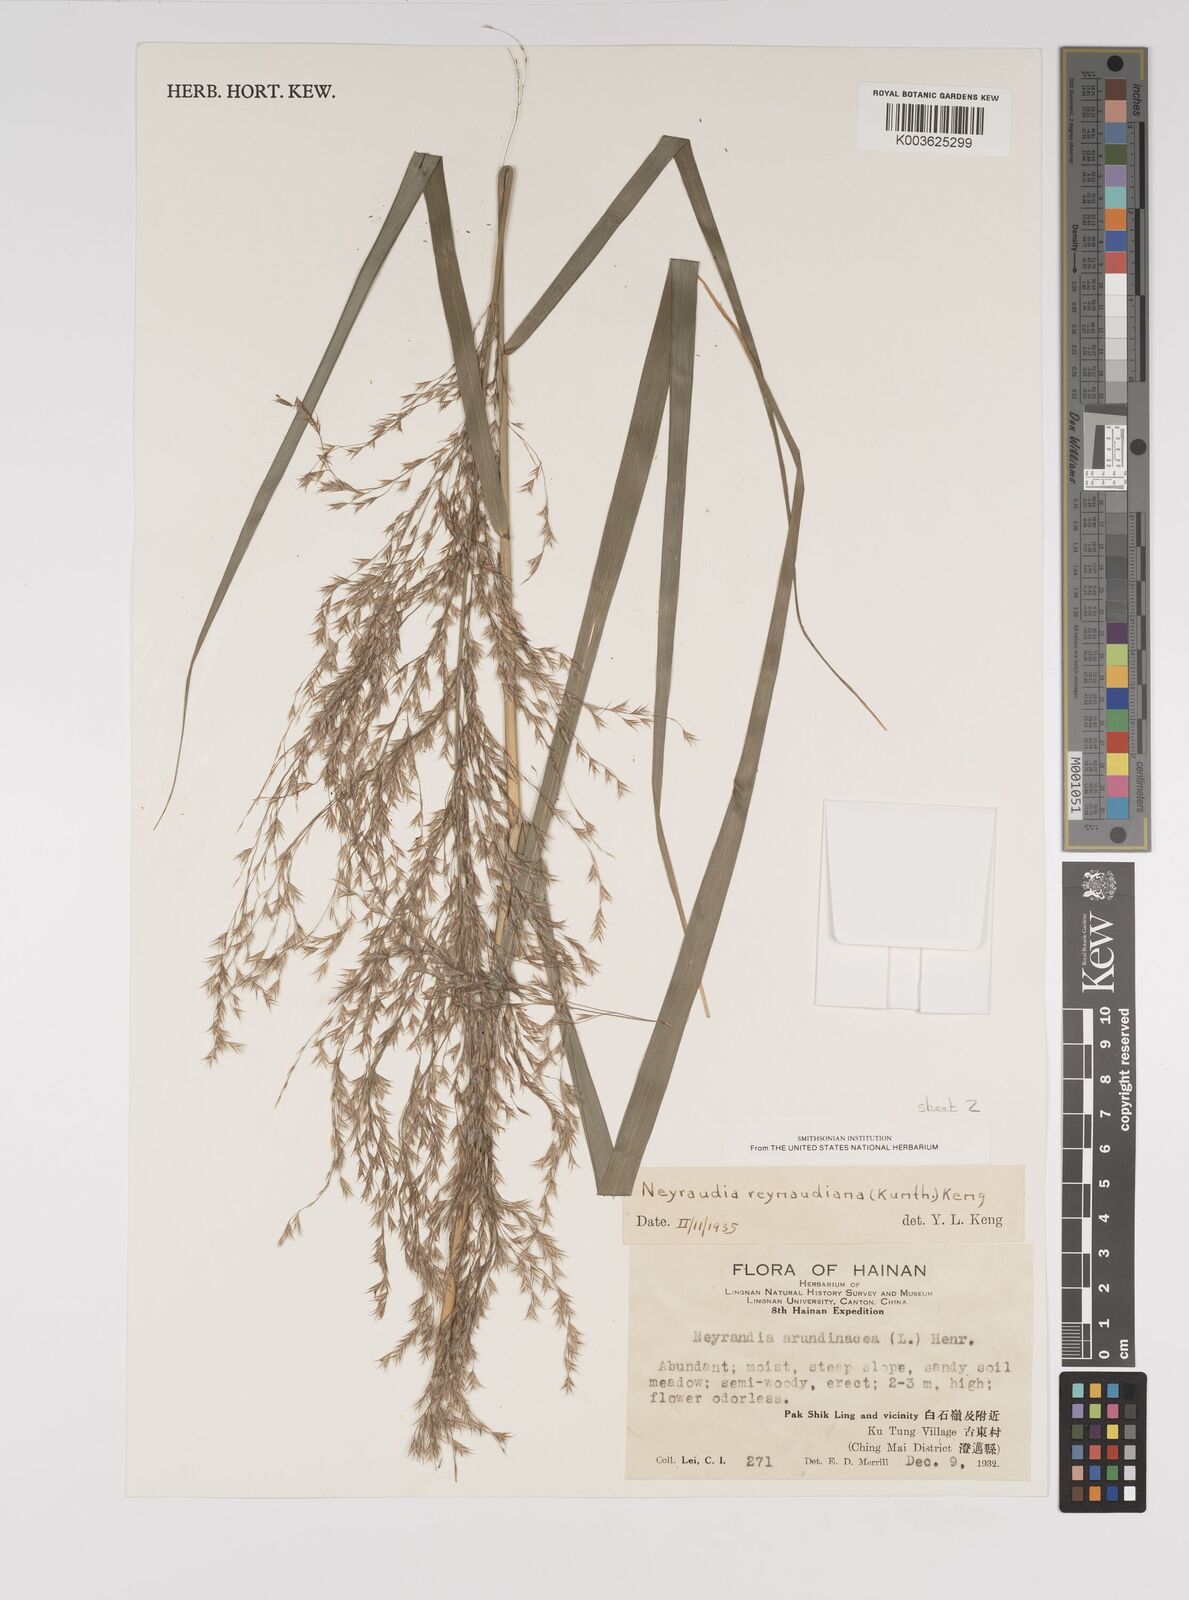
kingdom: Plantae
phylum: Tracheophyta
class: Liliopsida
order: Poales
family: Poaceae
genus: Neyraudia
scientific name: Neyraudia reynaudiana
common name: Silkreed
